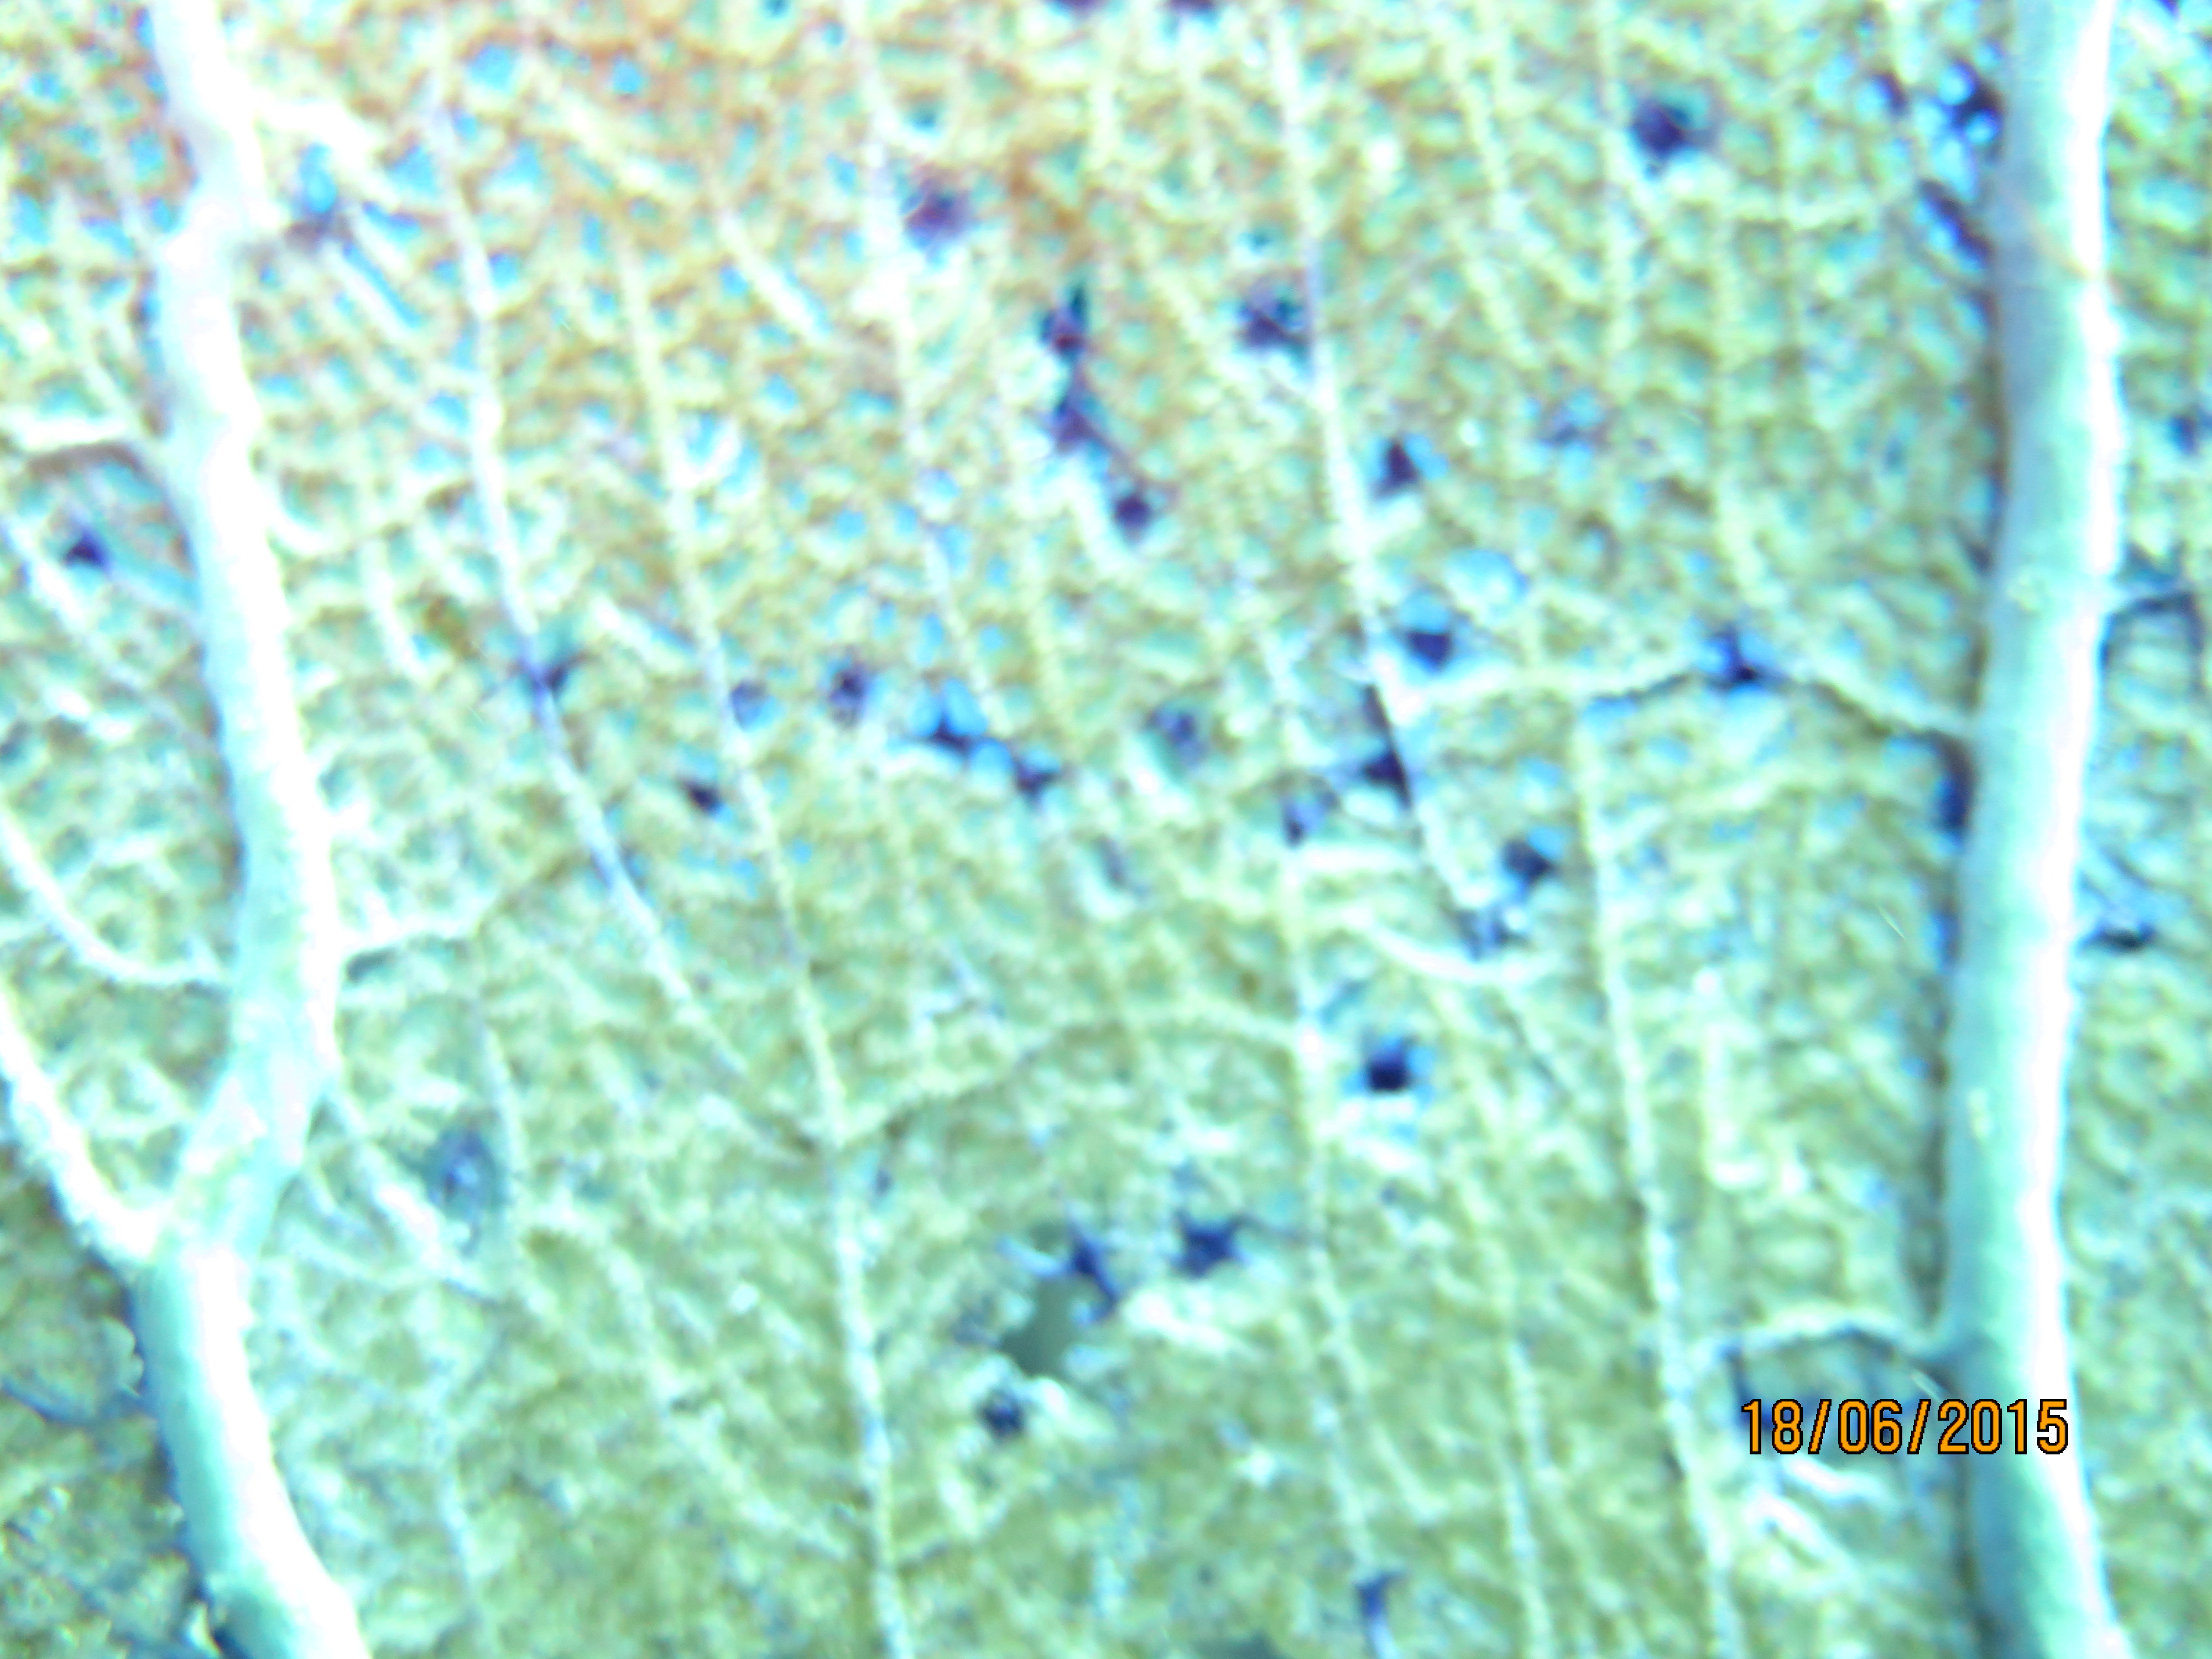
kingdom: Animalia
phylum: Cnidaria
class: Anthozoa
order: Malacalcyonacea
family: Gorgoniidae
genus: Gorgonia
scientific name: Gorgonia ventalina
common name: Common sea fan
